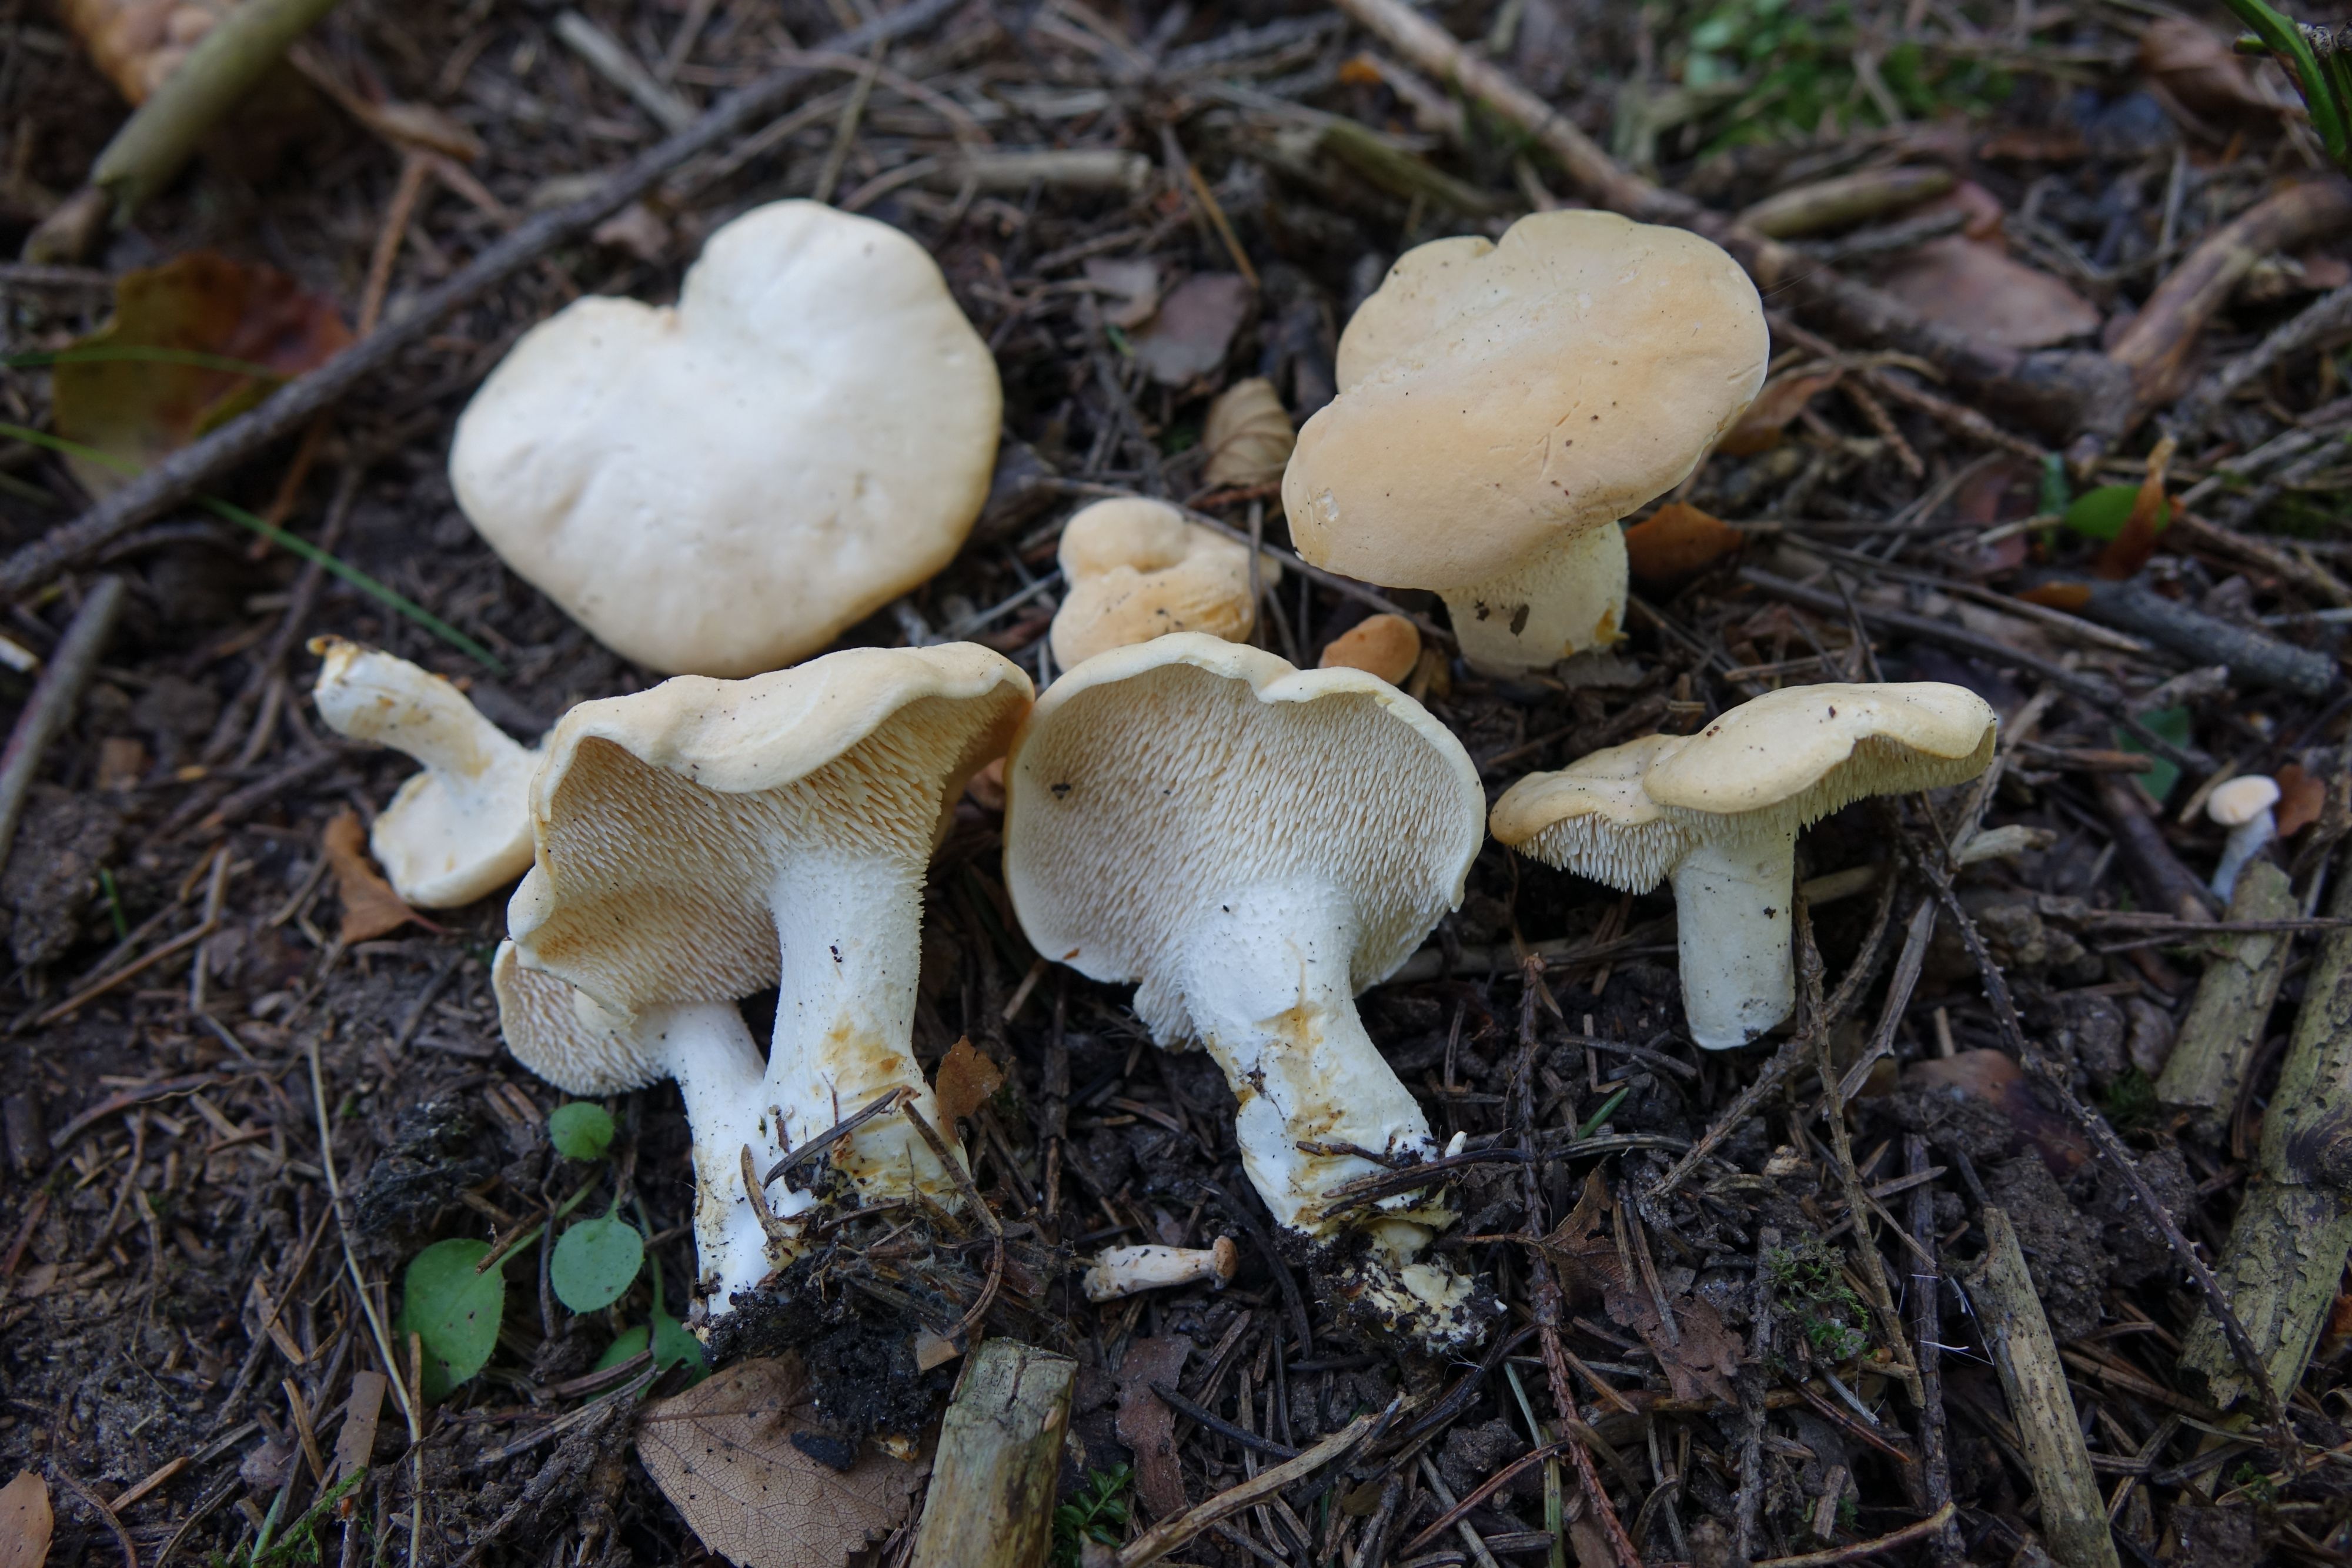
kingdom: Fungi
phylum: Basidiomycota
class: Agaricomycetes
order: Cantharellales
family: Hydnaceae
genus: Hydnum
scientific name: Hydnum repandum
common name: Wood hedgehog
